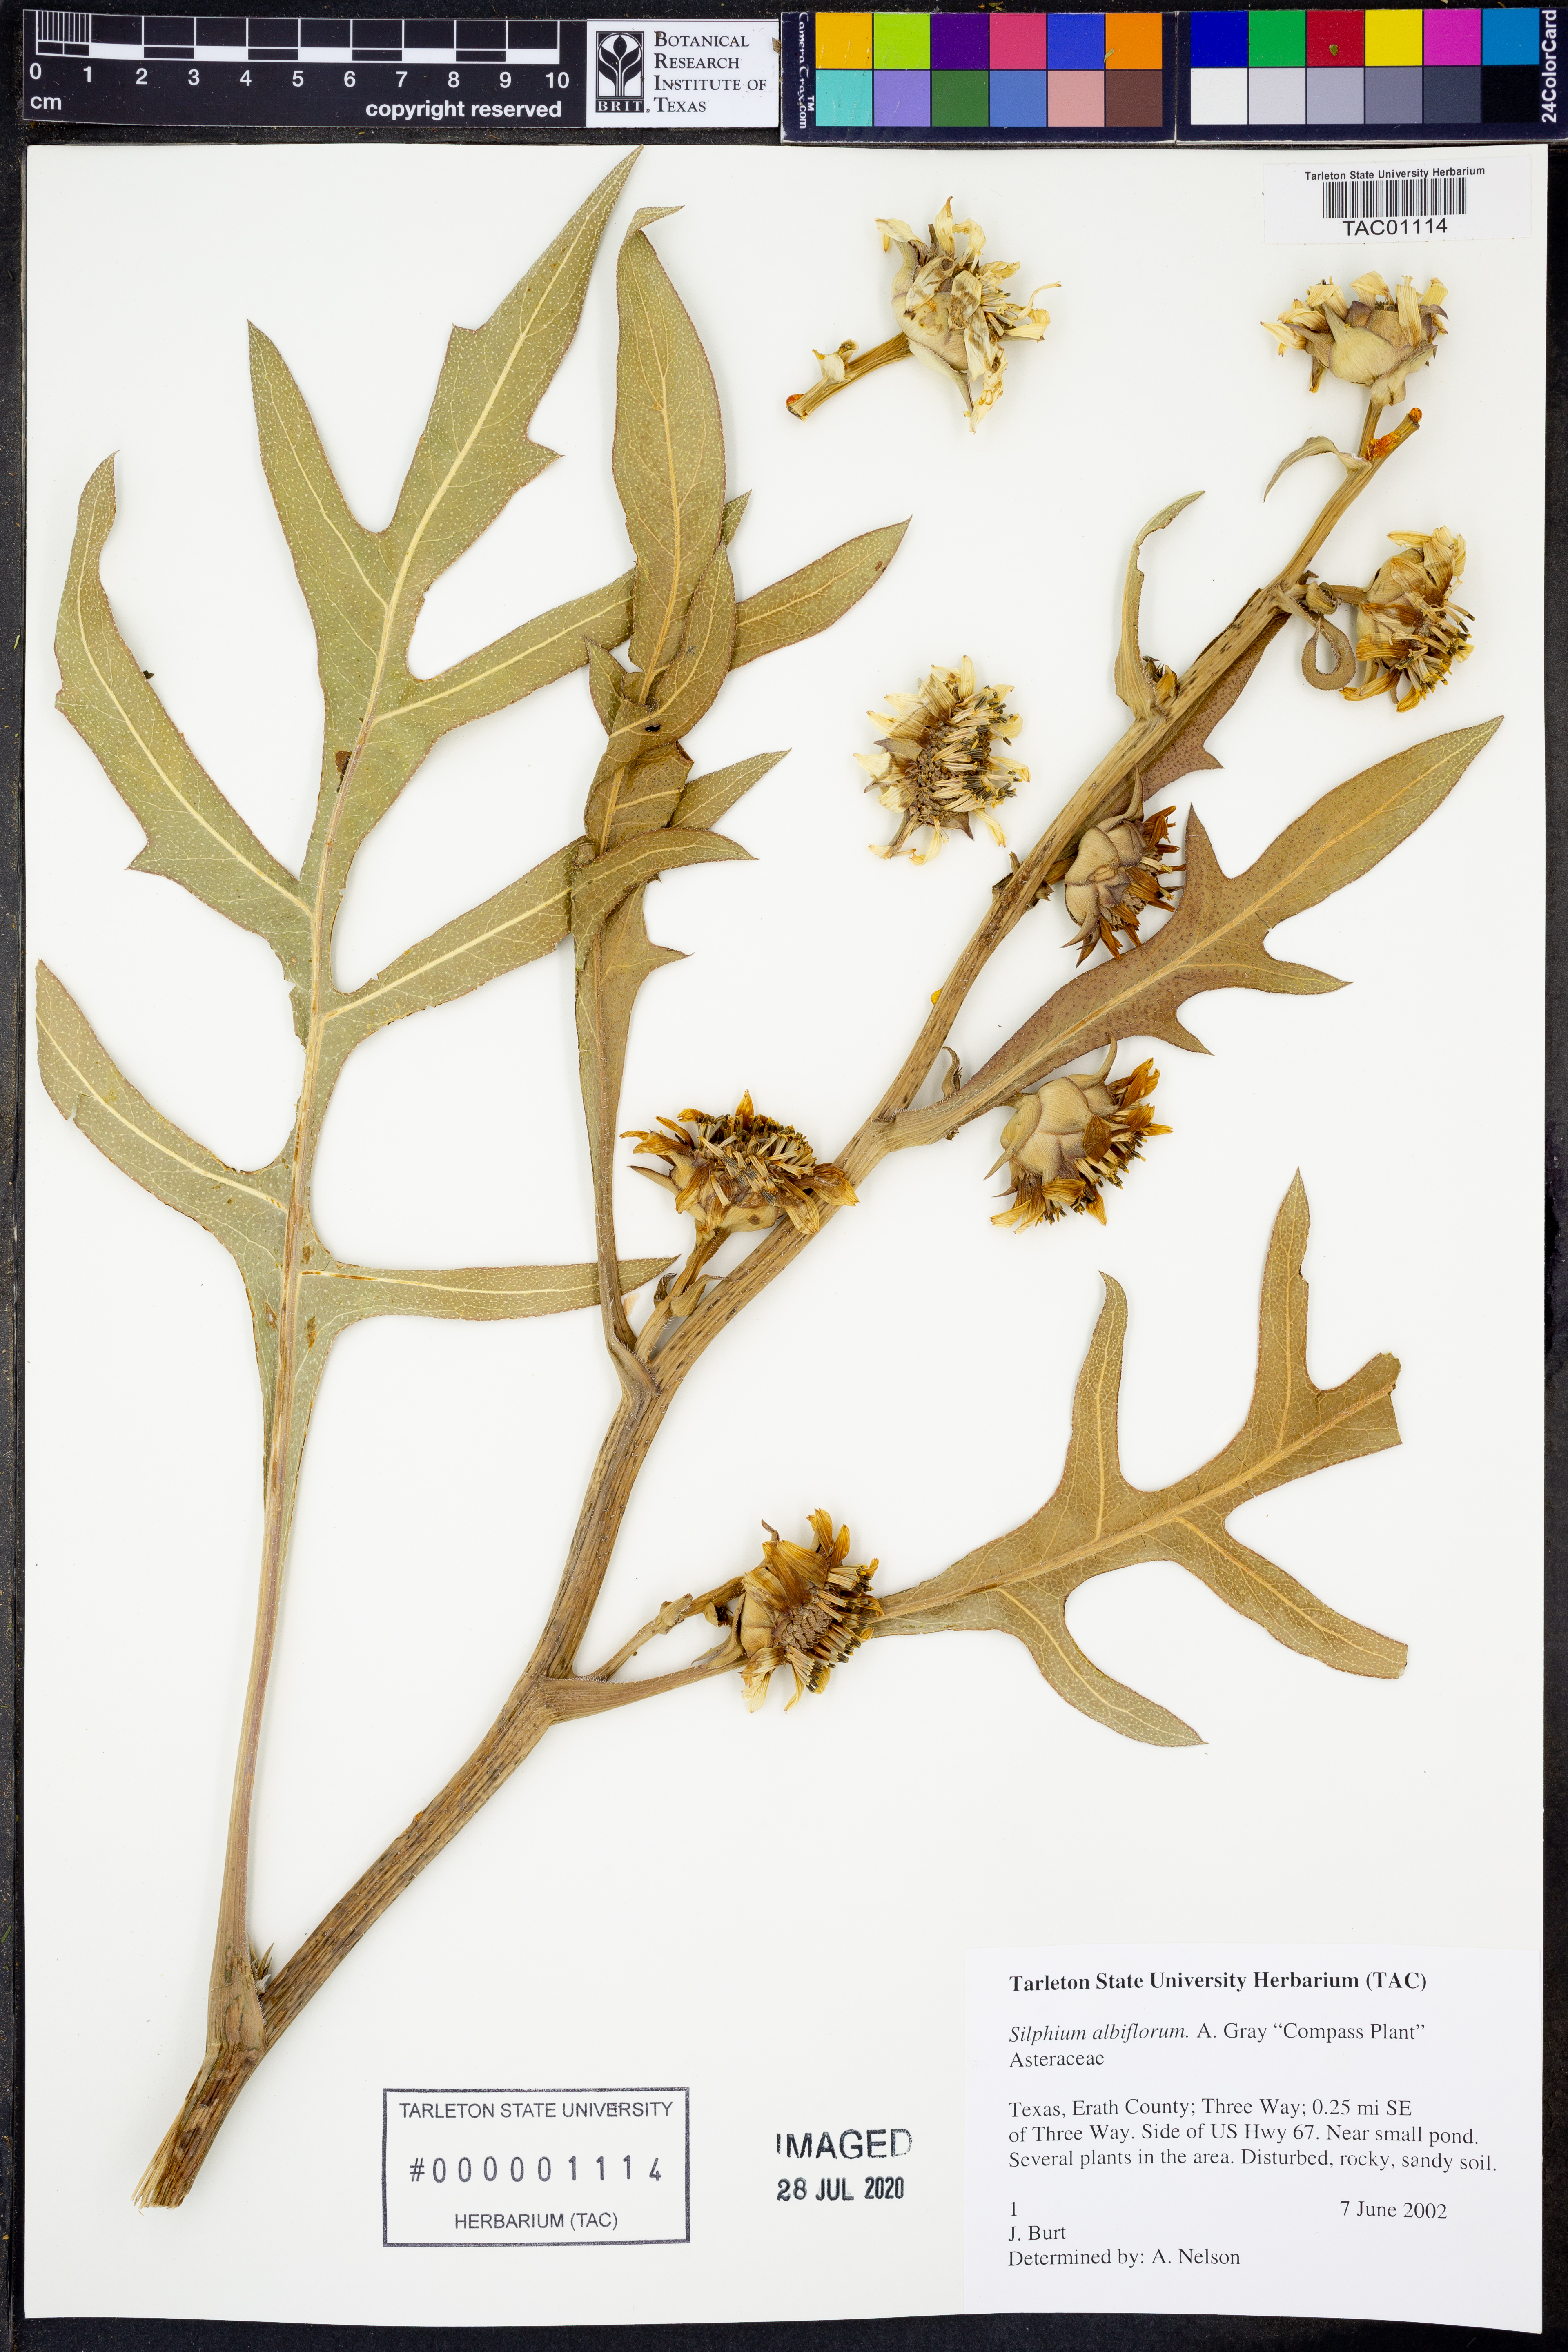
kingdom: Plantae
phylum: Tracheophyta
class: Magnoliopsida
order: Asterales
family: Asteraceae
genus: Silphium
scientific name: Silphium albiflorum
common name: White rosinweed
